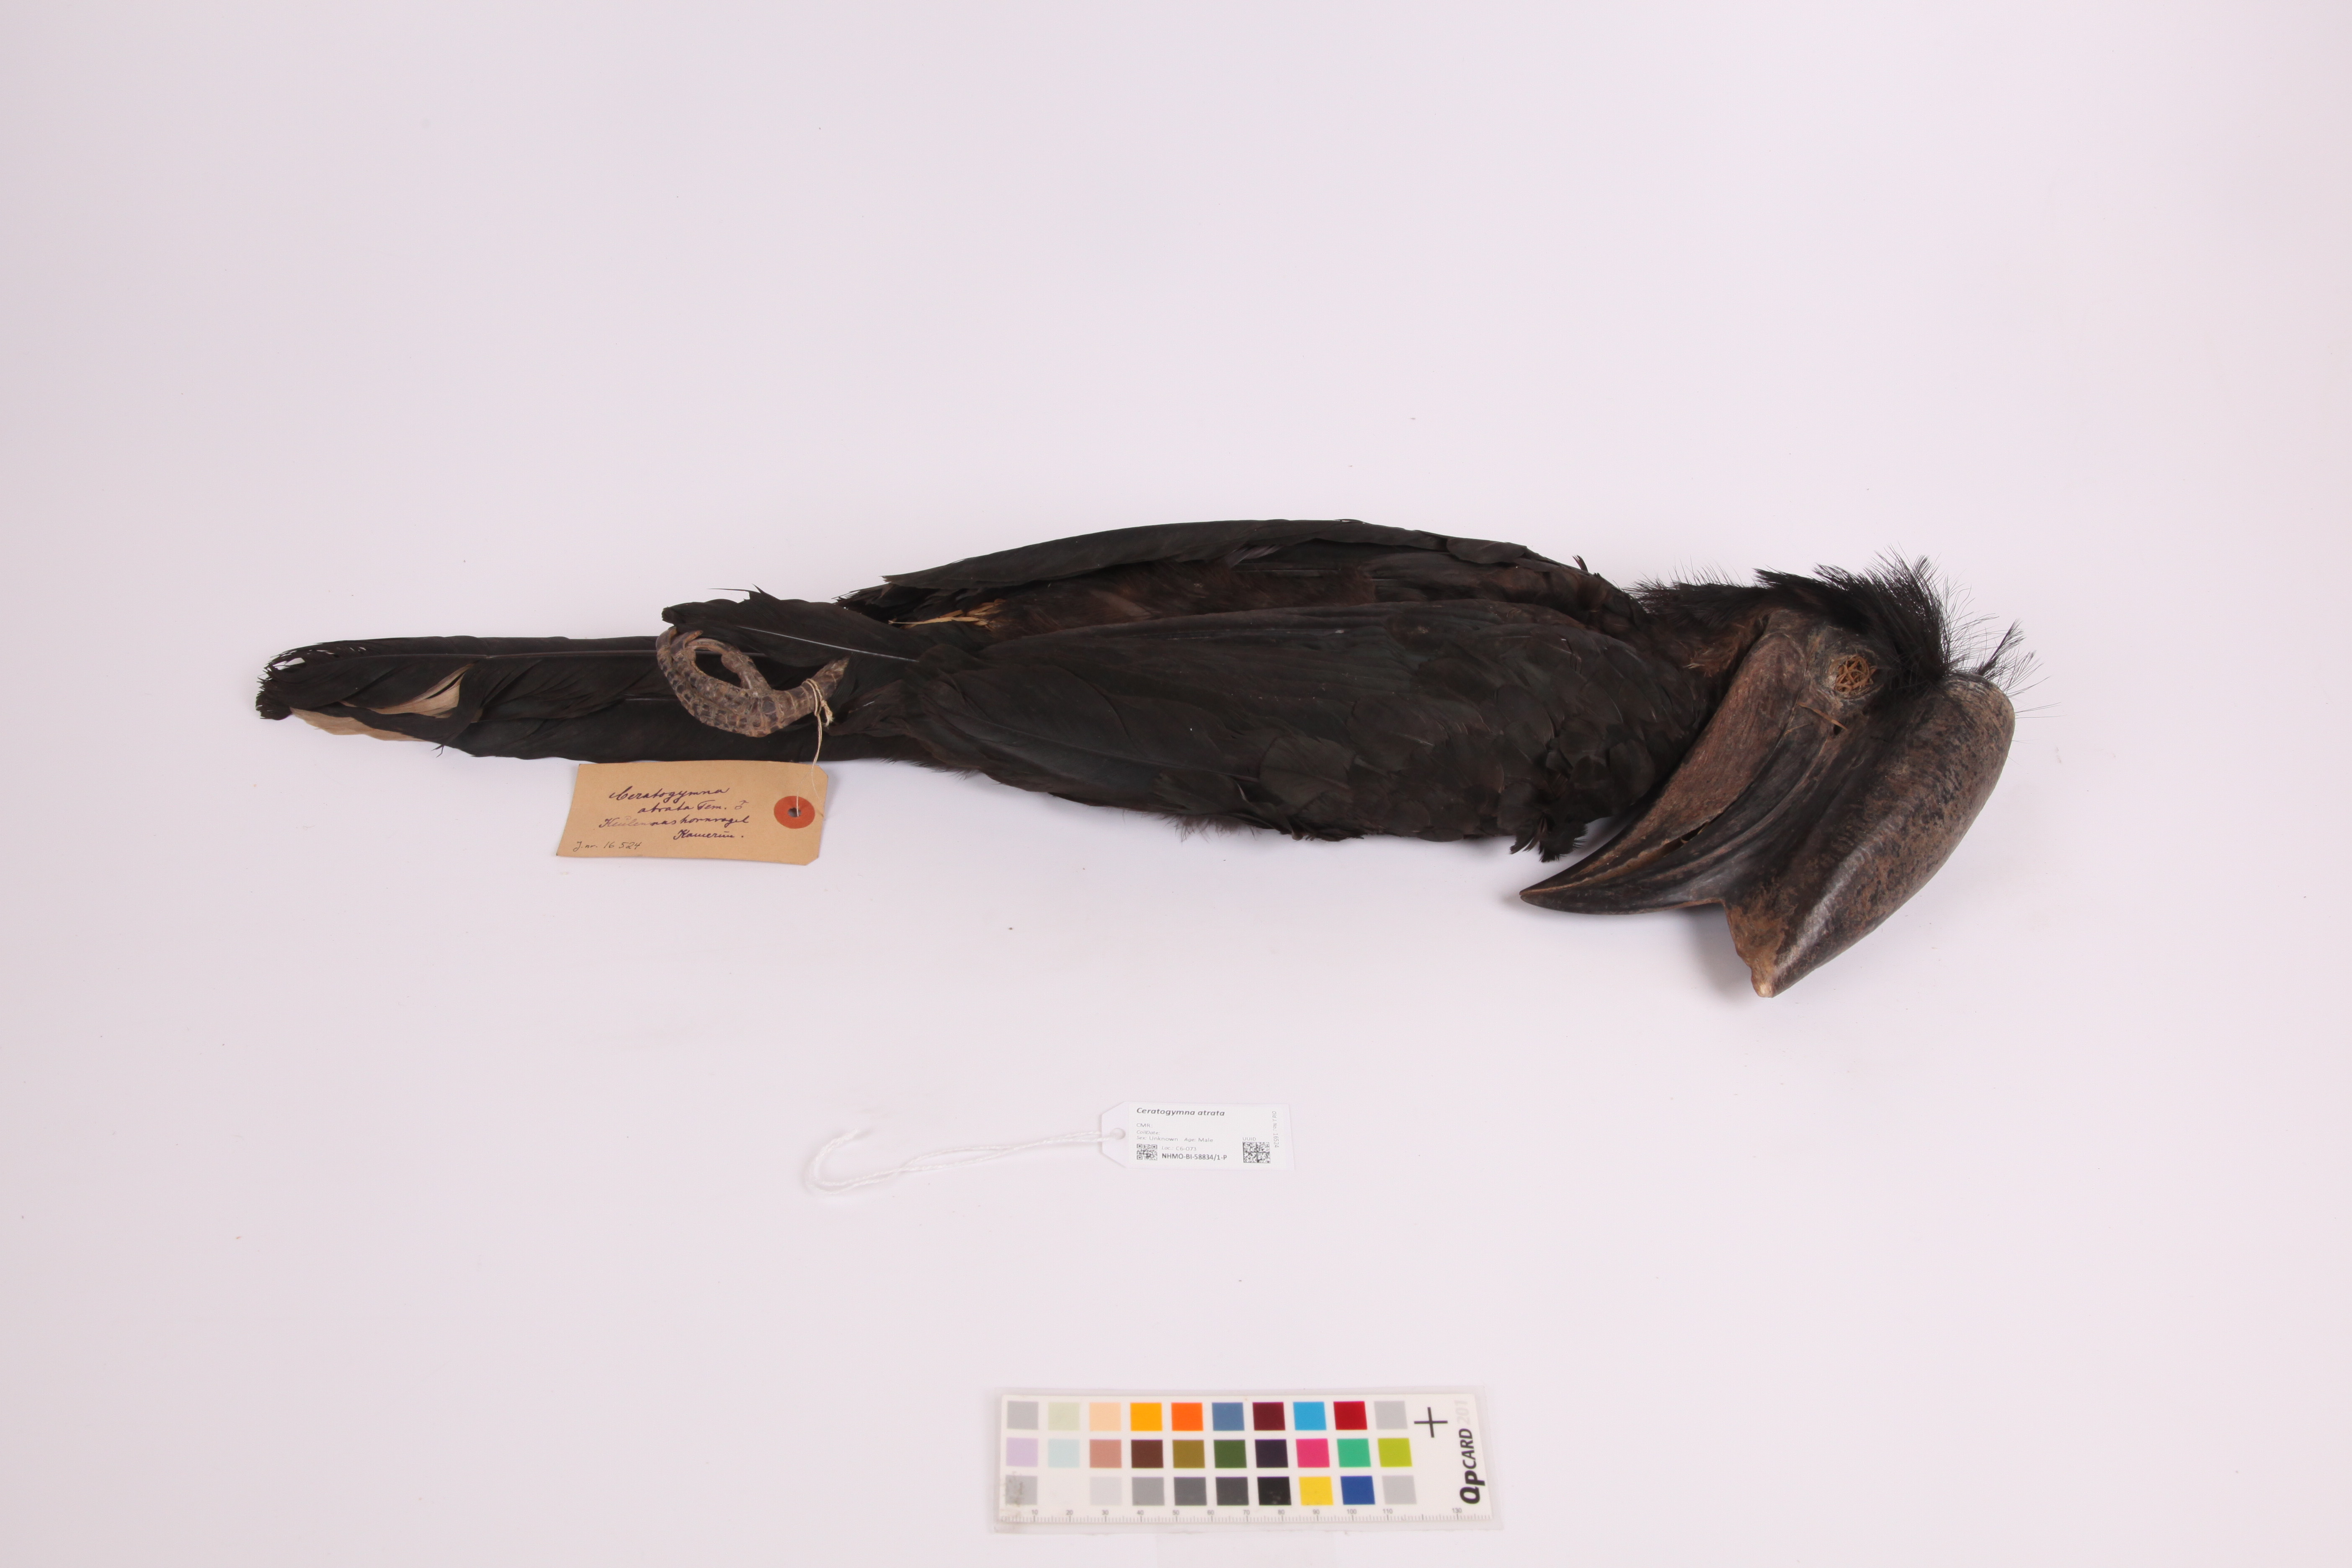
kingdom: Animalia
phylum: Chordata
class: Aves
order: Bucerotiformes
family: Bucerotidae
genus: Ceratogymna
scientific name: Ceratogymna atrata
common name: Black-casqued hornbill
